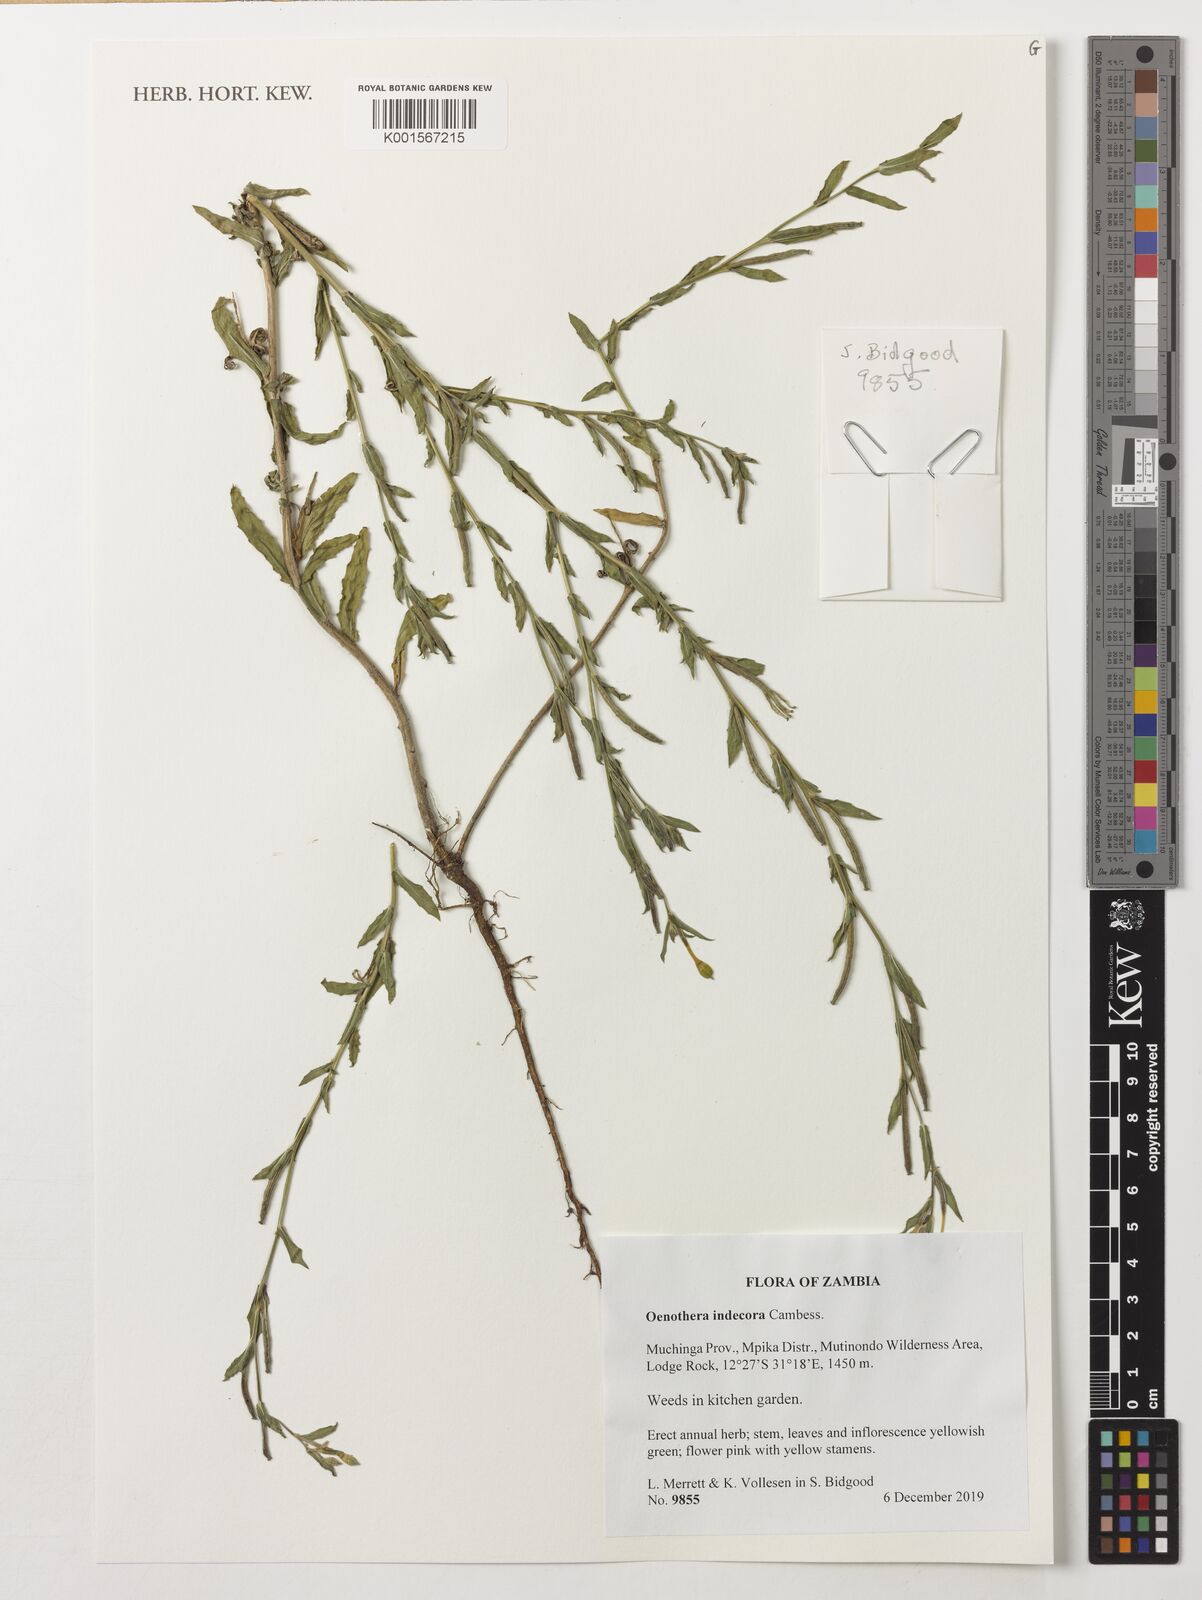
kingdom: Plantae
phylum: Tracheophyta
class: Magnoliopsida
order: Myrtales
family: Onagraceae
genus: Oenothera
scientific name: Oenothera indecora
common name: Small-flower evening-primrose
